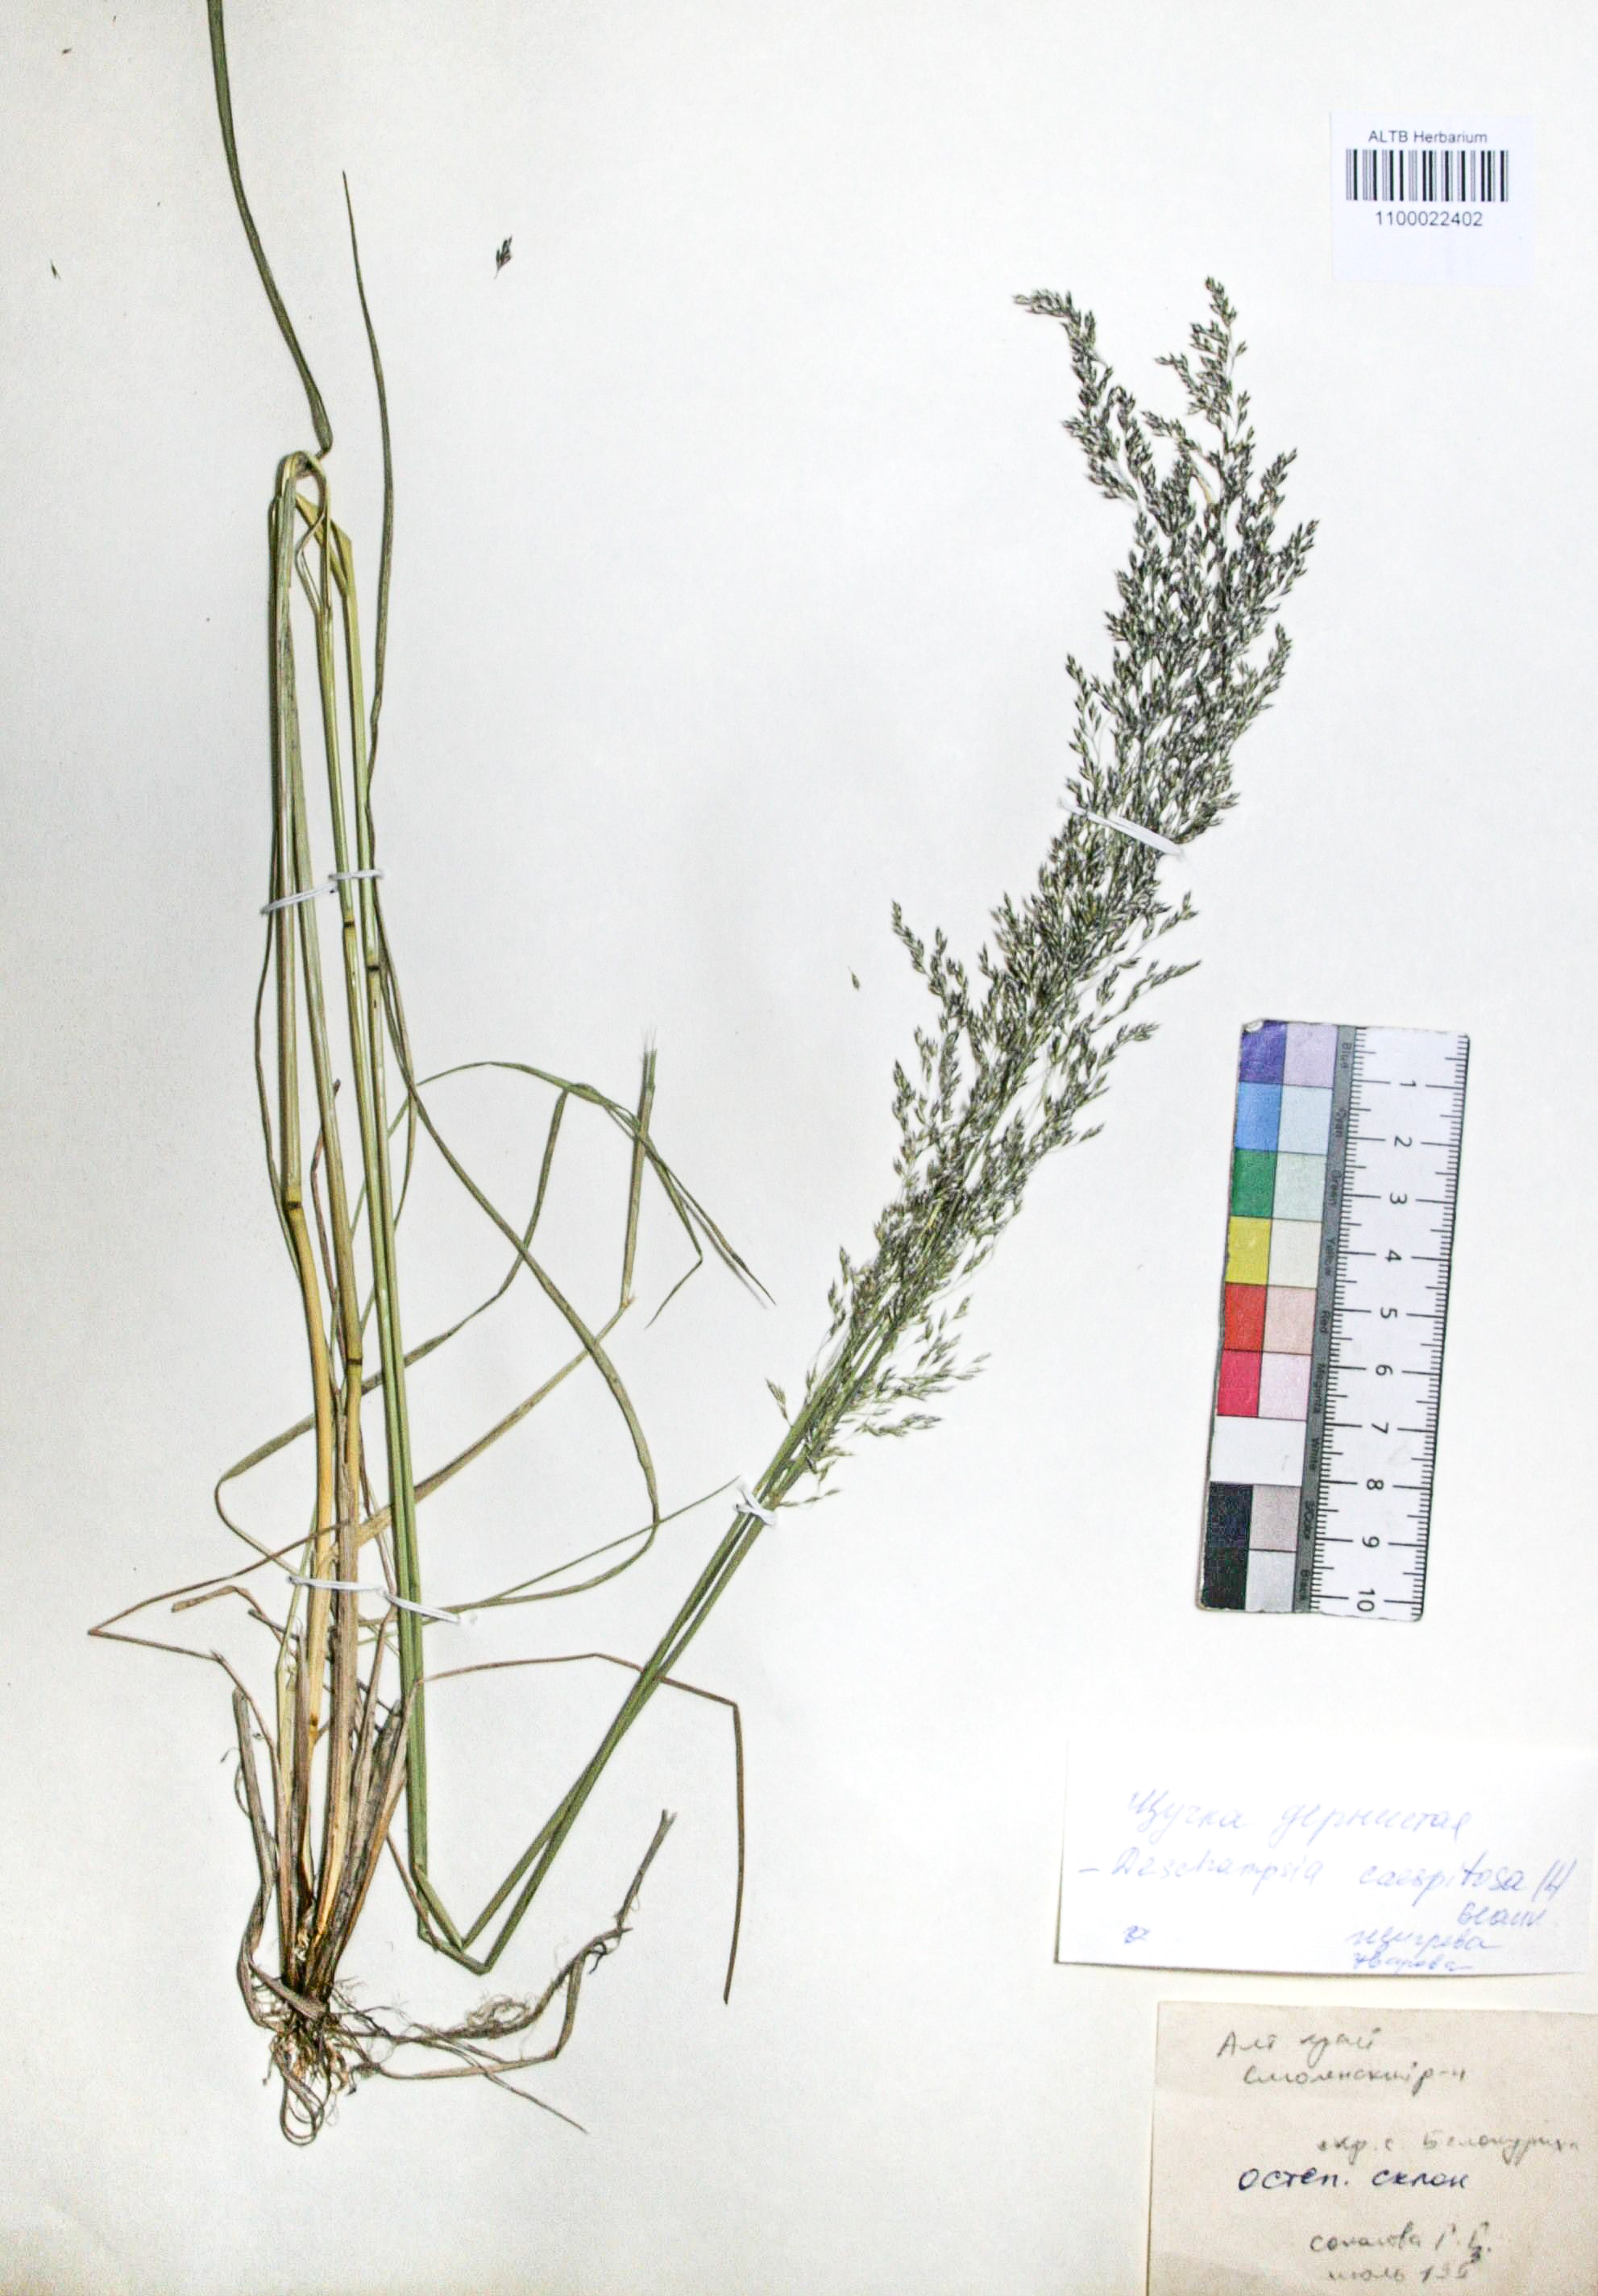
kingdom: Plantae
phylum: Tracheophyta
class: Liliopsida
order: Poales
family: Poaceae
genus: Deschampsia
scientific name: Deschampsia cespitosa
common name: Tufted hair-grass
